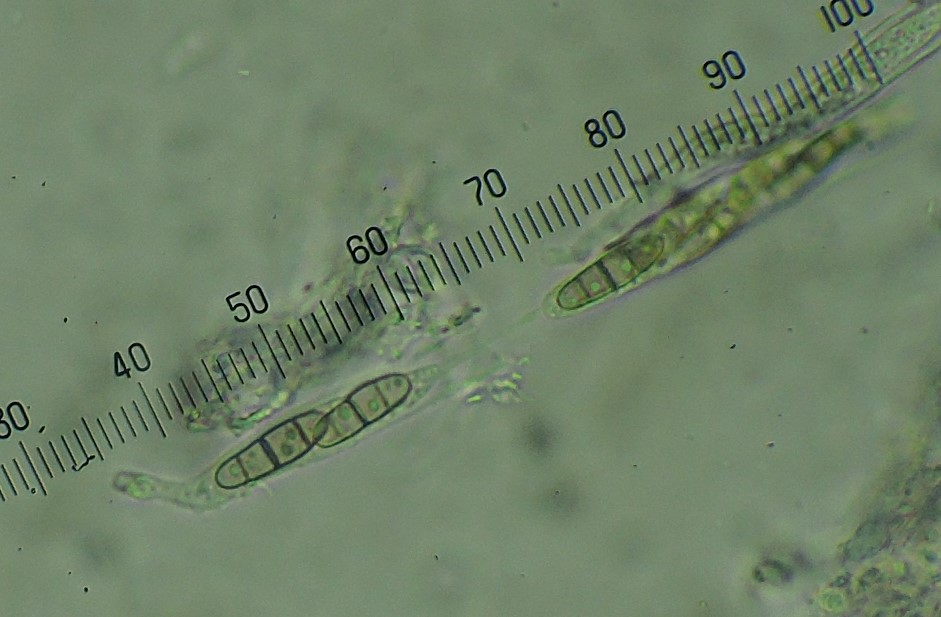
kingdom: Fungi
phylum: Ascomycota
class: Dothideomycetes
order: Hysteriales
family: Hysteriaceae
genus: Hysterium
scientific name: Hysterium acuminatum
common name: almindelig kulmund
